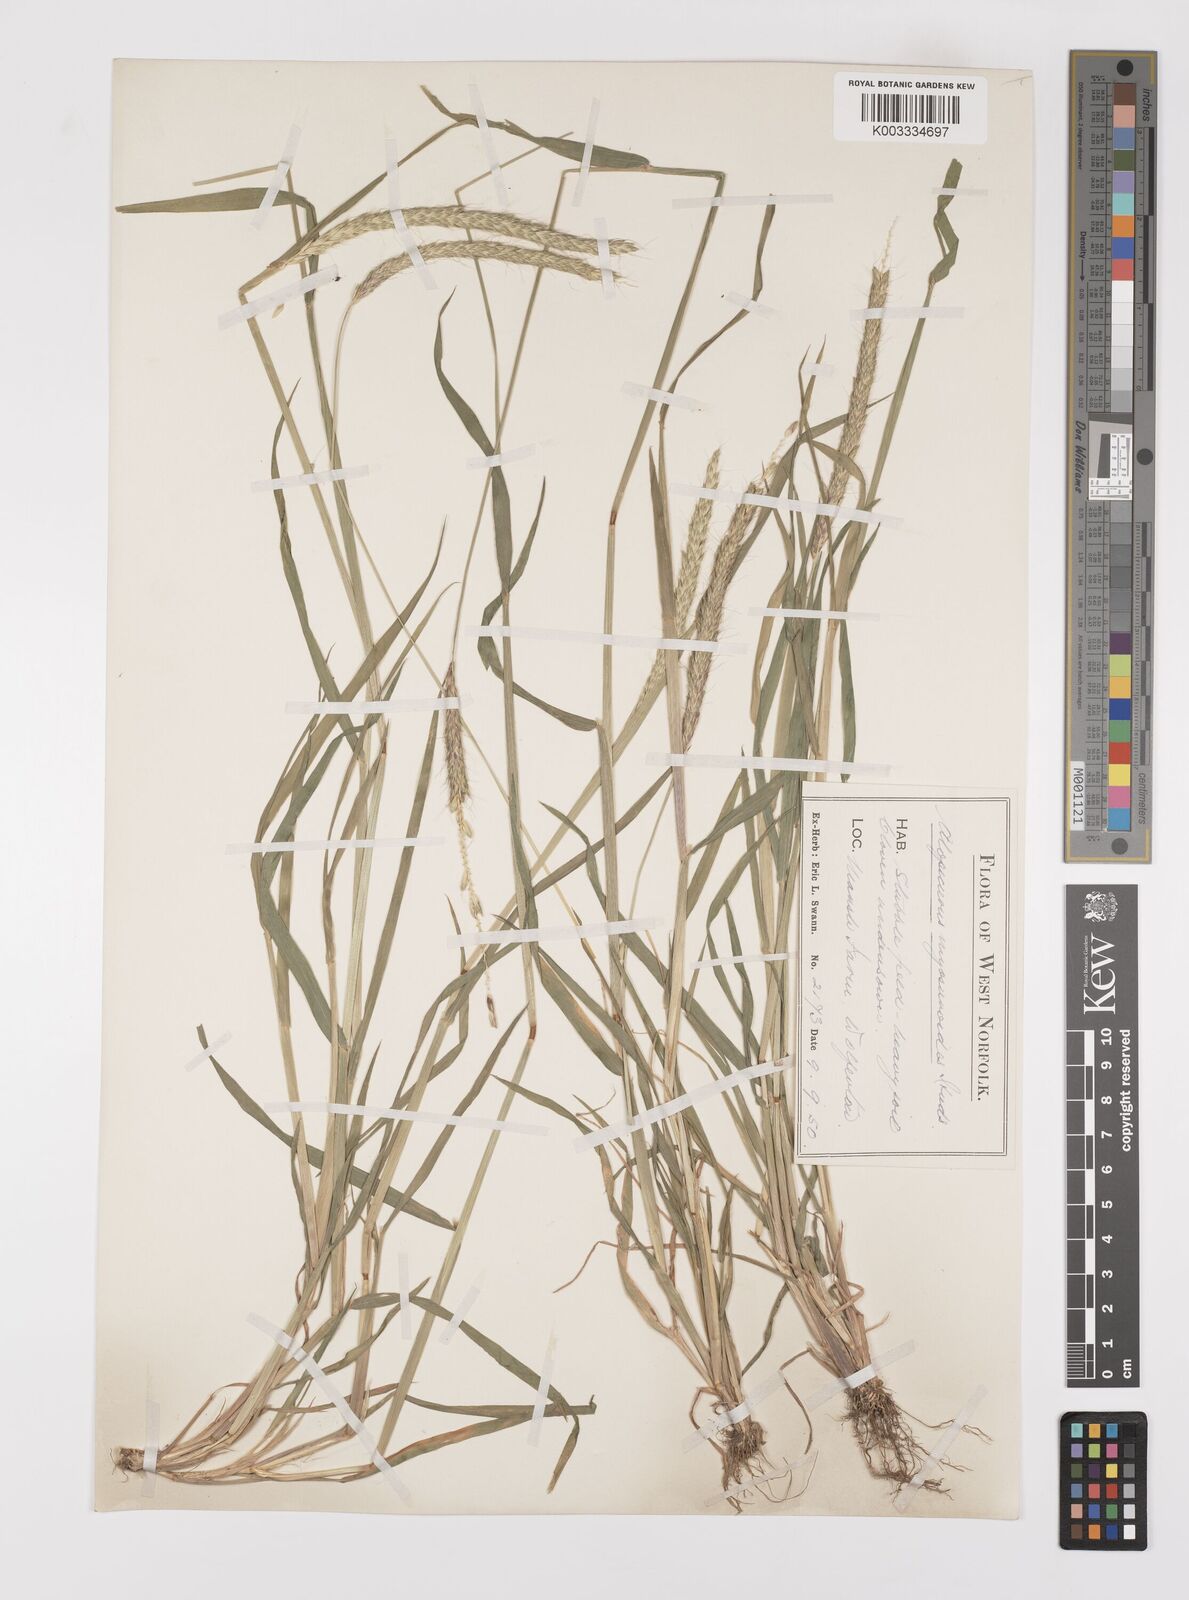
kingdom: Plantae
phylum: Tracheophyta
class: Liliopsida
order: Poales
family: Poaceae
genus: Alopecurus
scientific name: Alopecurus myosuroides
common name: Black-grass
